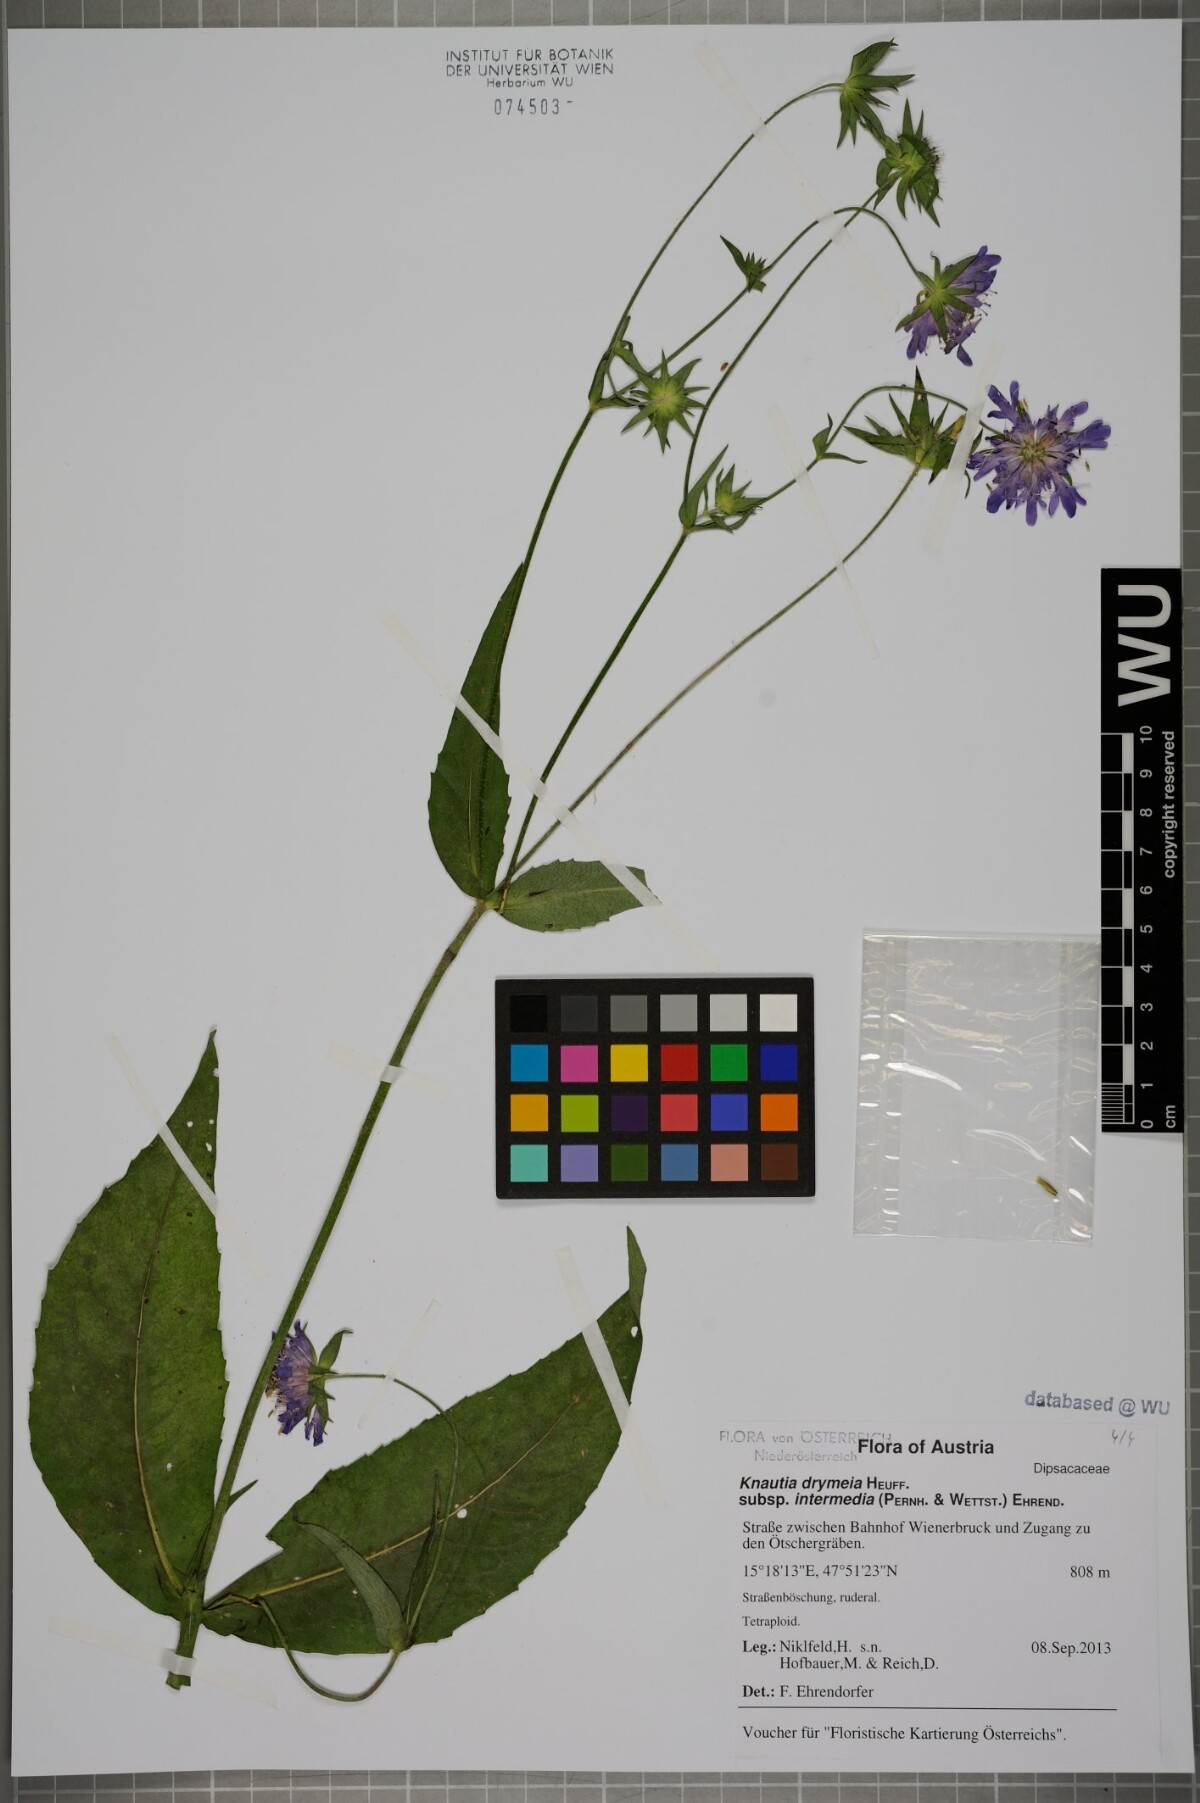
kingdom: Plantae
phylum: Tracheophyta
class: Magnoliopsida
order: Dipsacales
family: Caprifoliaceae
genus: Knautia
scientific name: Knautia drymeia
